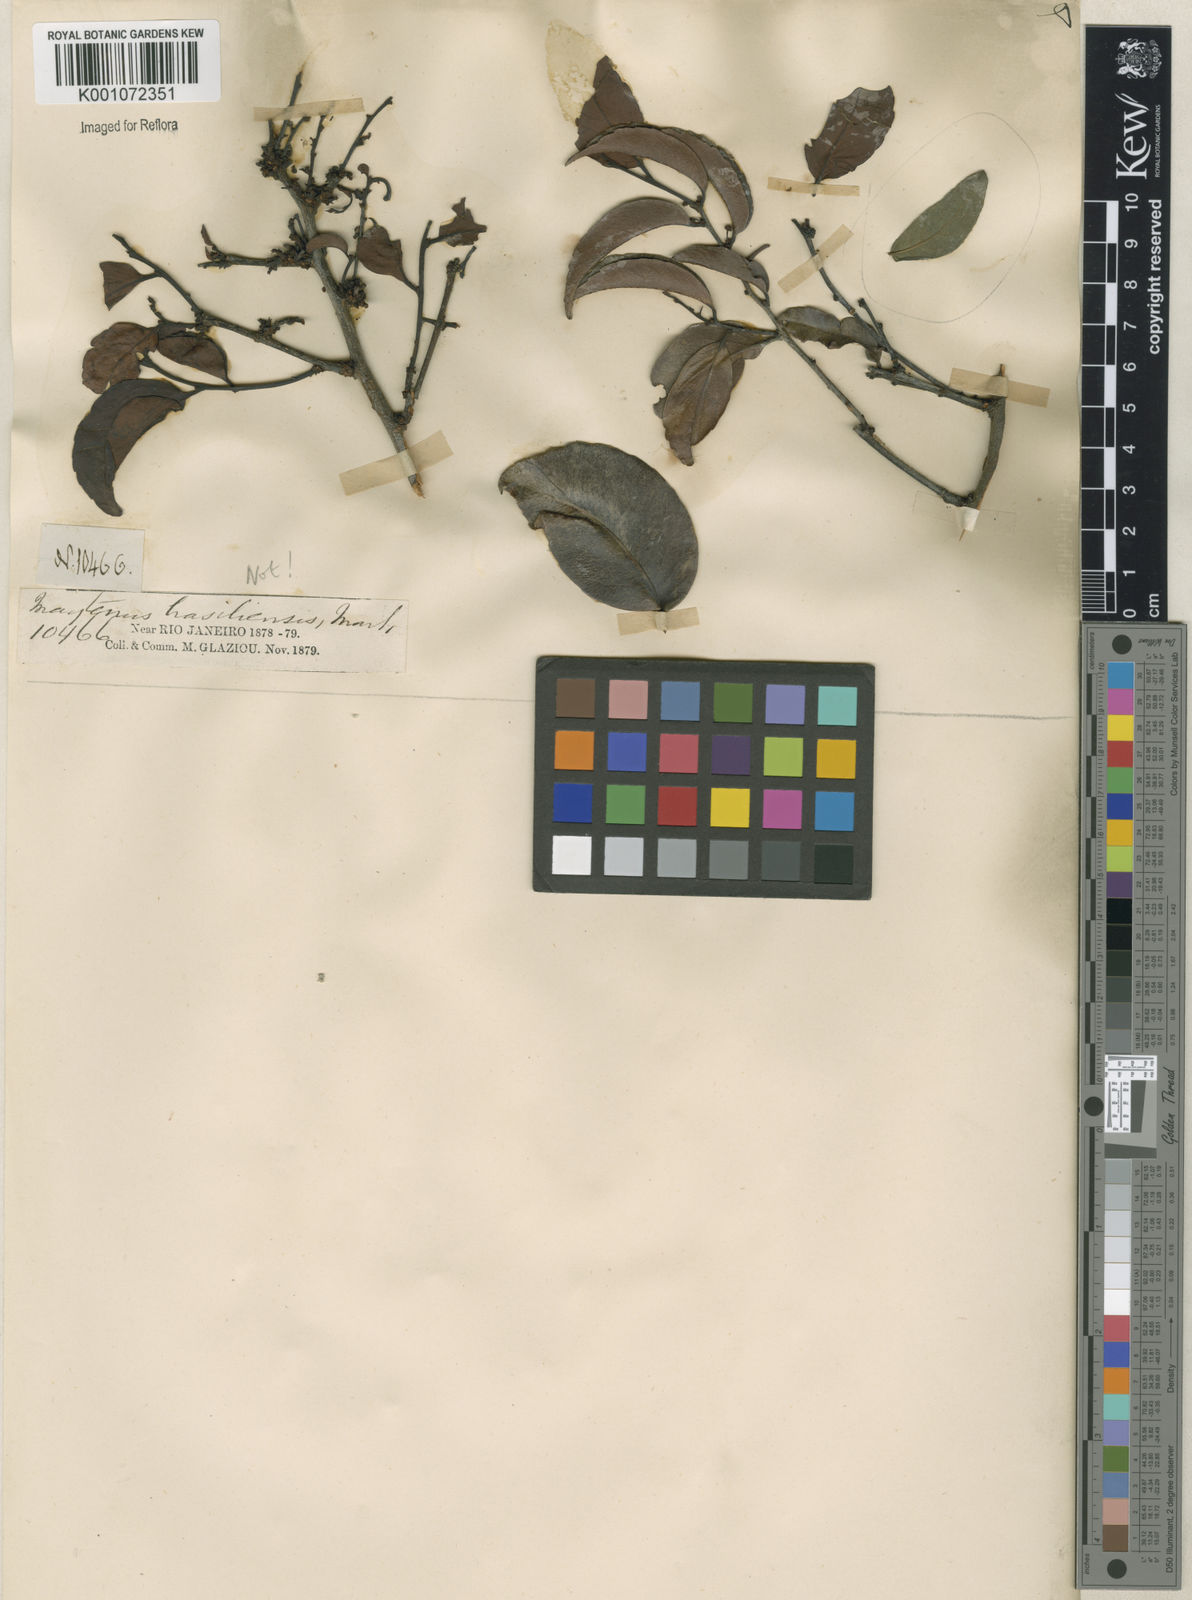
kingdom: Plantae
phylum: Tracheophyta
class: Magnoliopsida
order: Celastrales
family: Celastraceae
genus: Maytenus
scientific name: Maytenus
